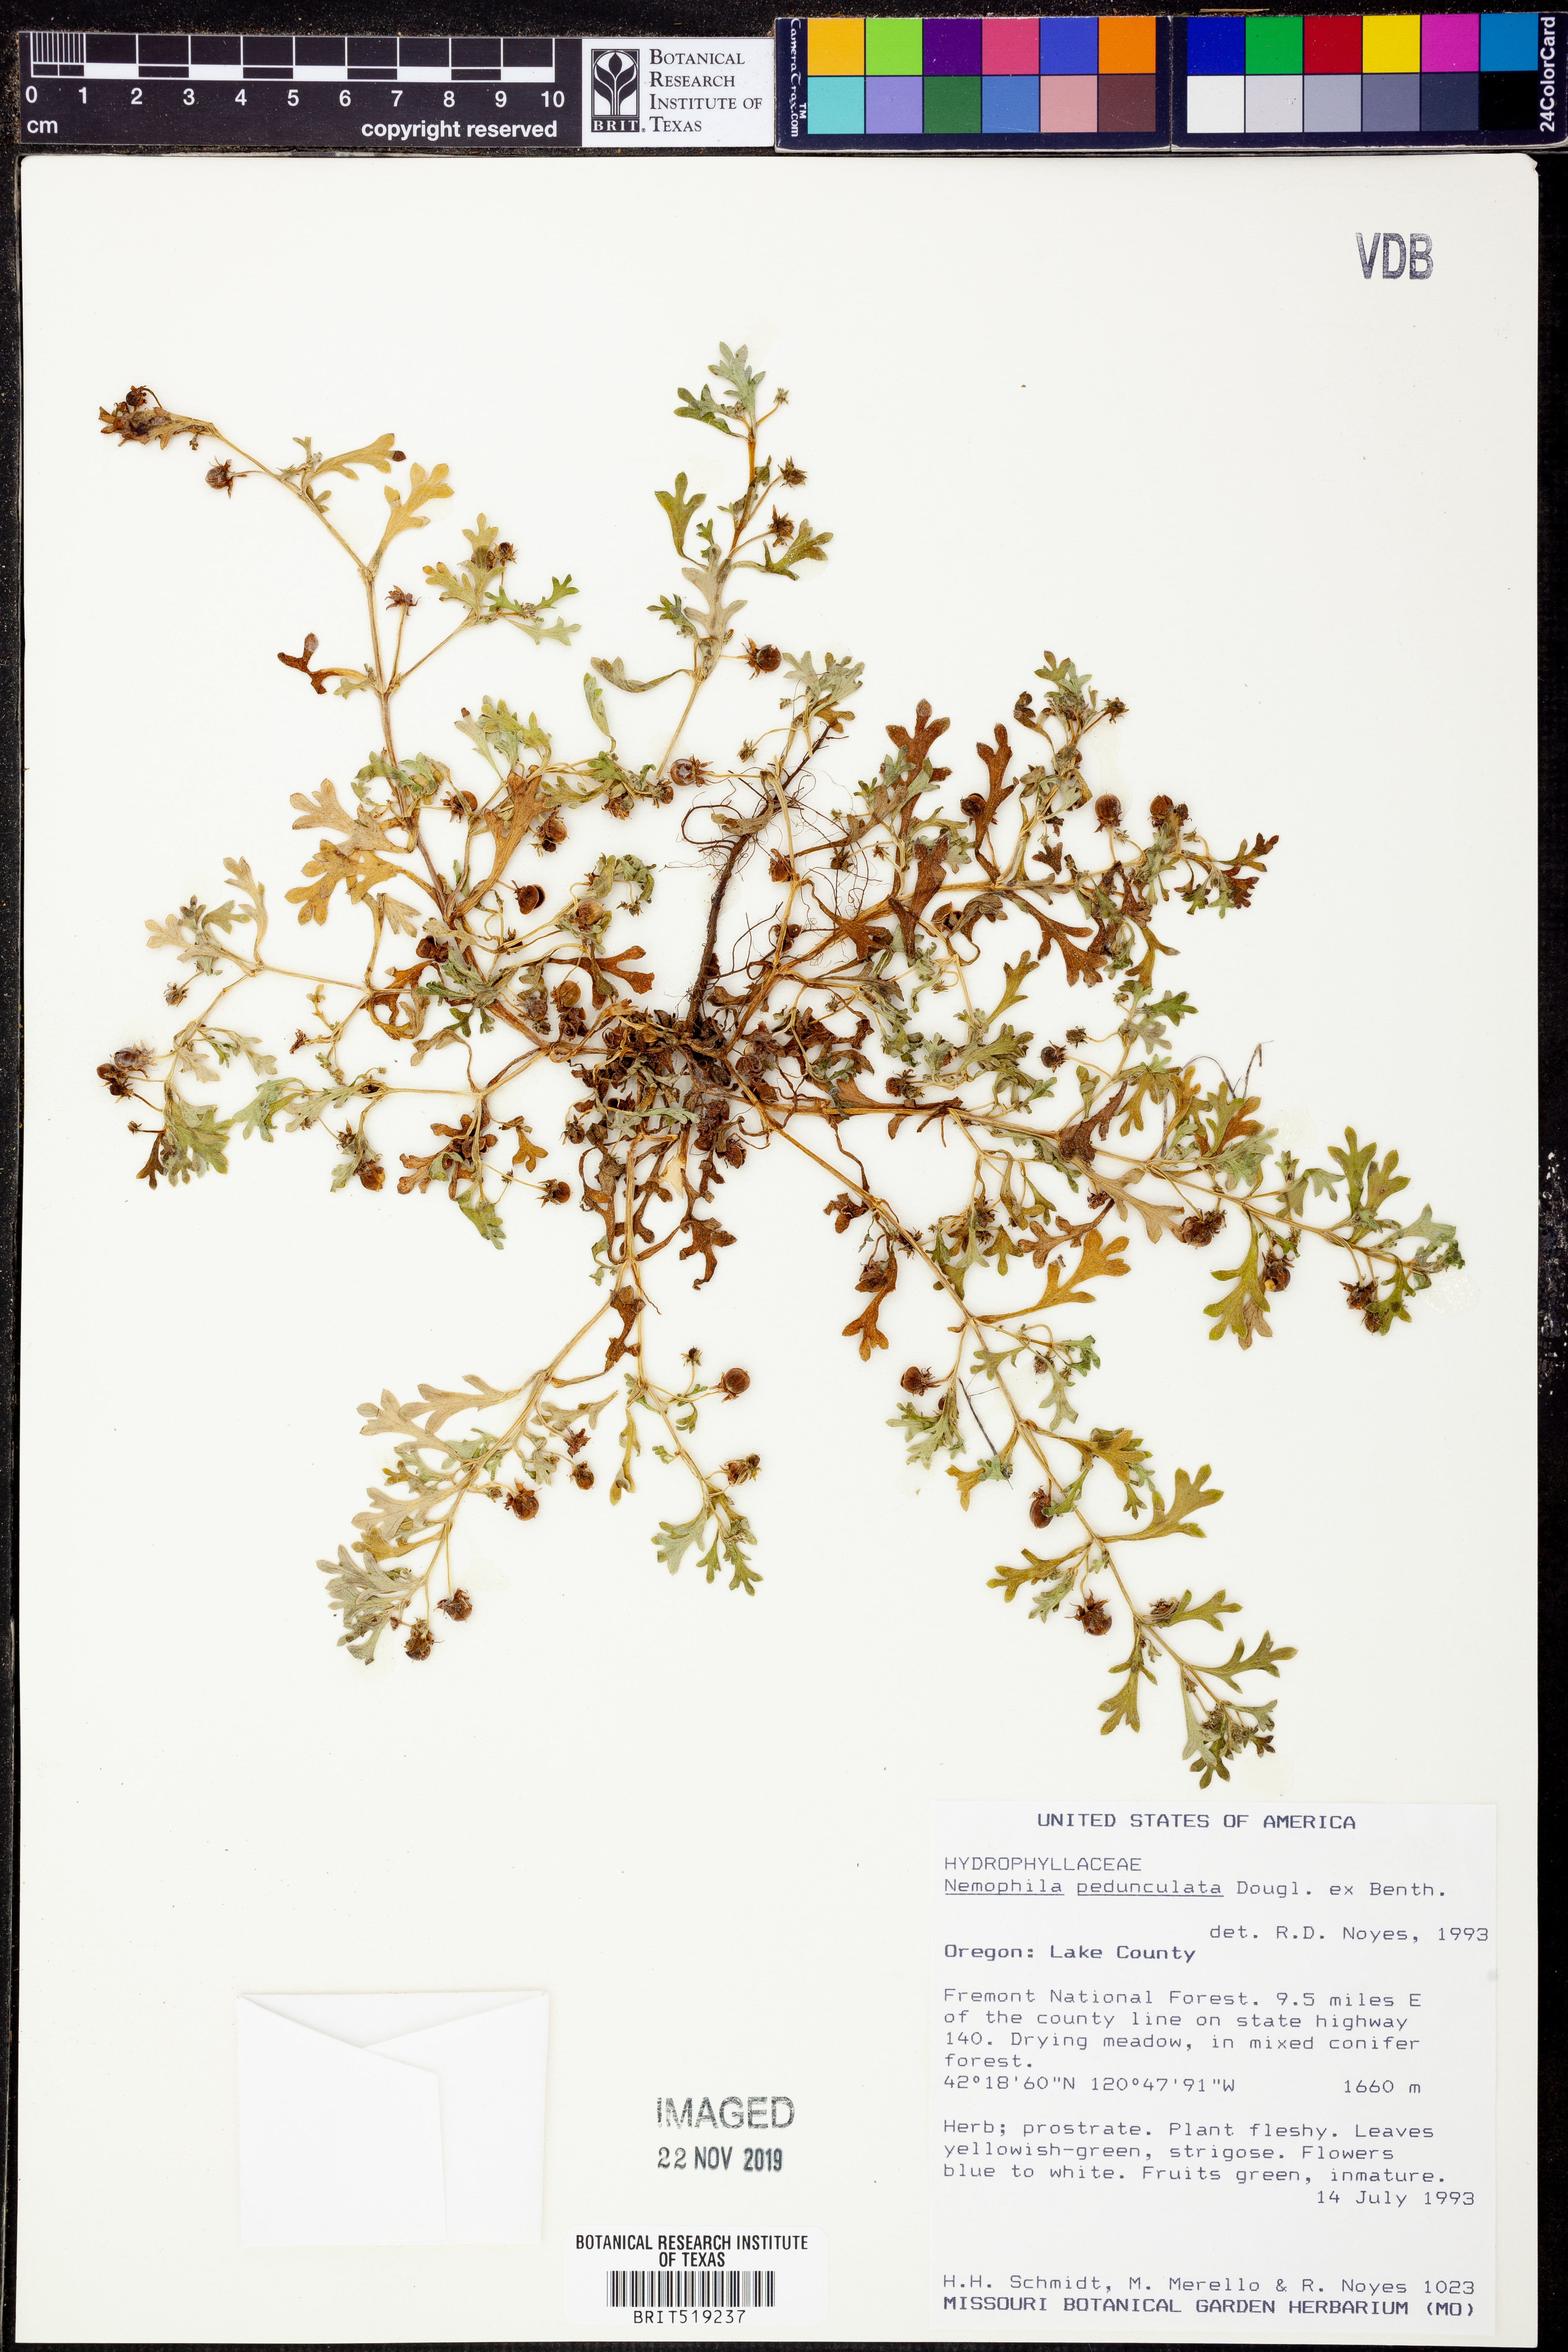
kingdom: Plantae
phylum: Tracheophyta
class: Magnoliopsida
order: Boraginales
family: Hydrophyllaceae
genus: Nemophila
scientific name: Nemophila pedunculata
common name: Little-foot baby-blue-eyes
